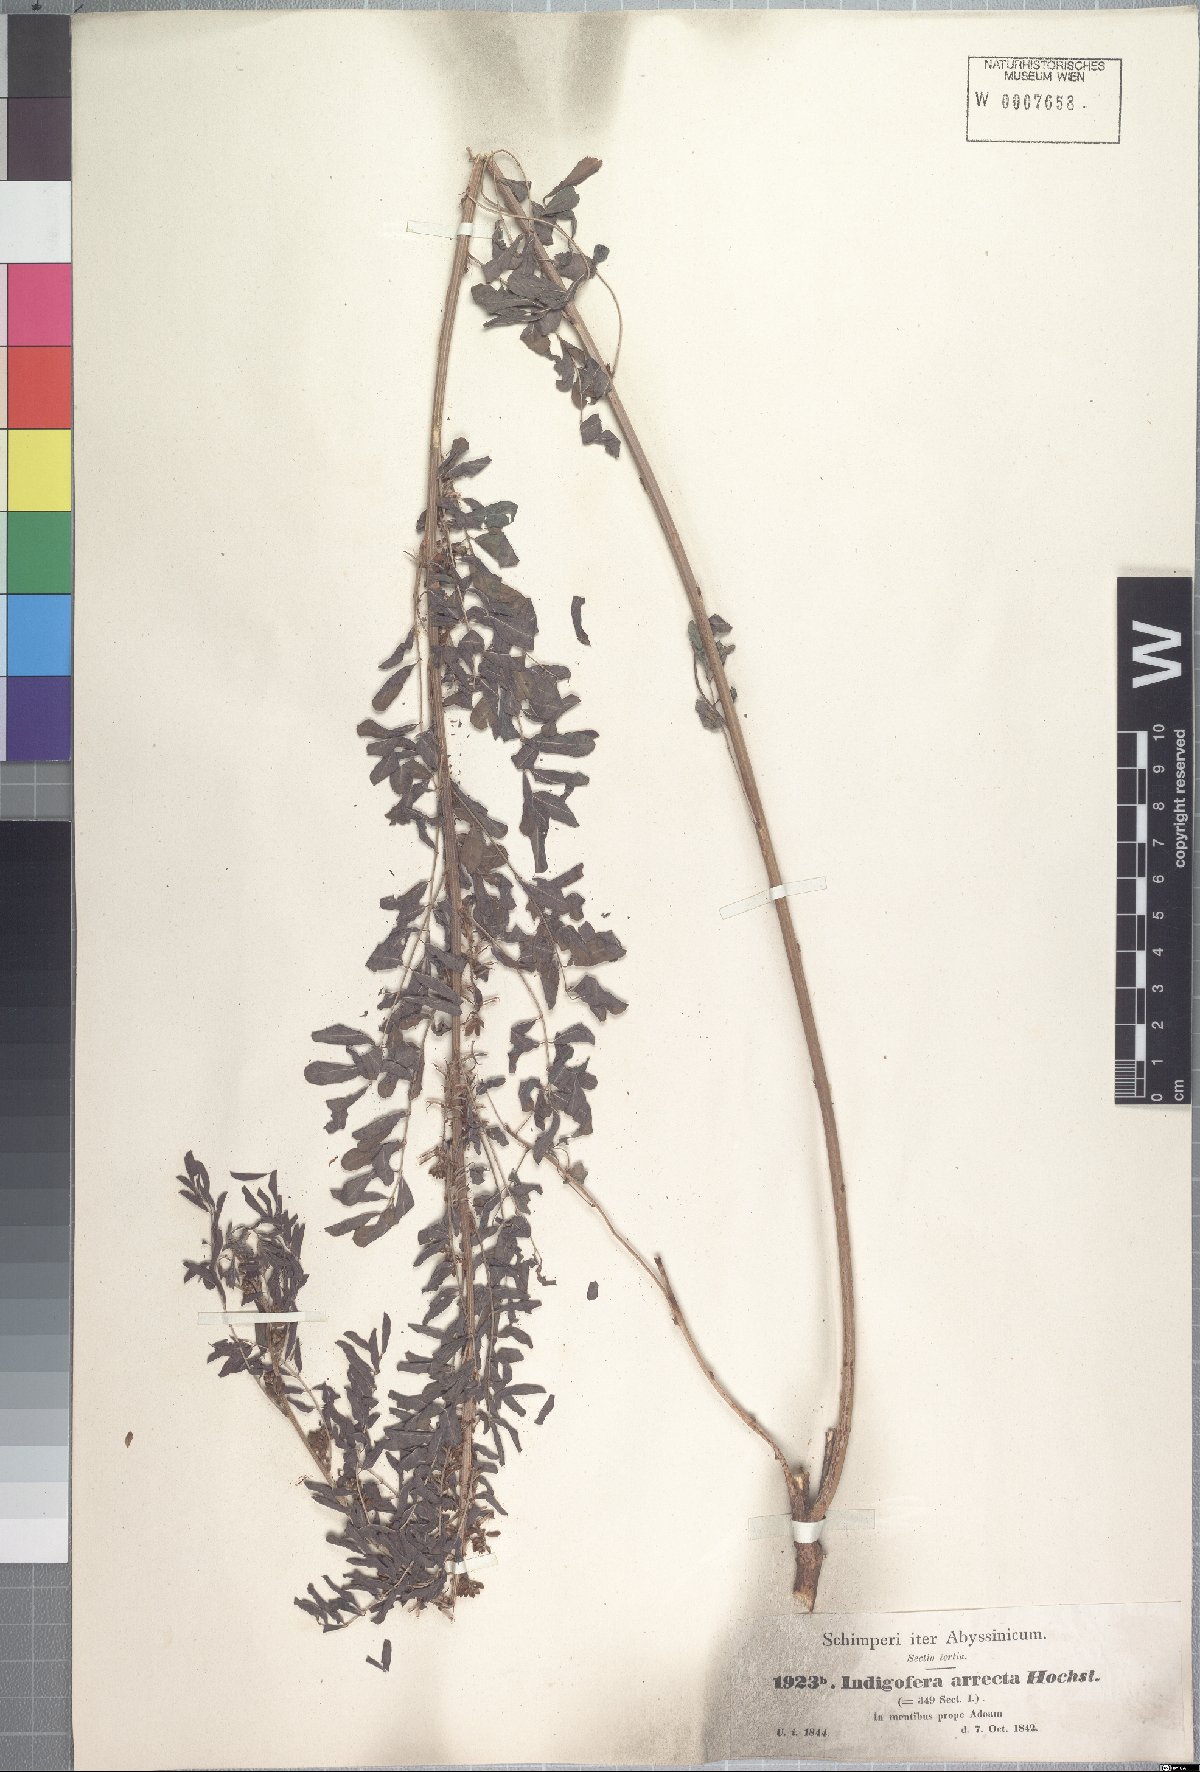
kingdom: Plantae
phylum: Tracheophyta
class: Magnoliopsida
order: Fabales
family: Fabaceae
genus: Indigofera
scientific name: Indigofera arrecta
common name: Bengal indigo
